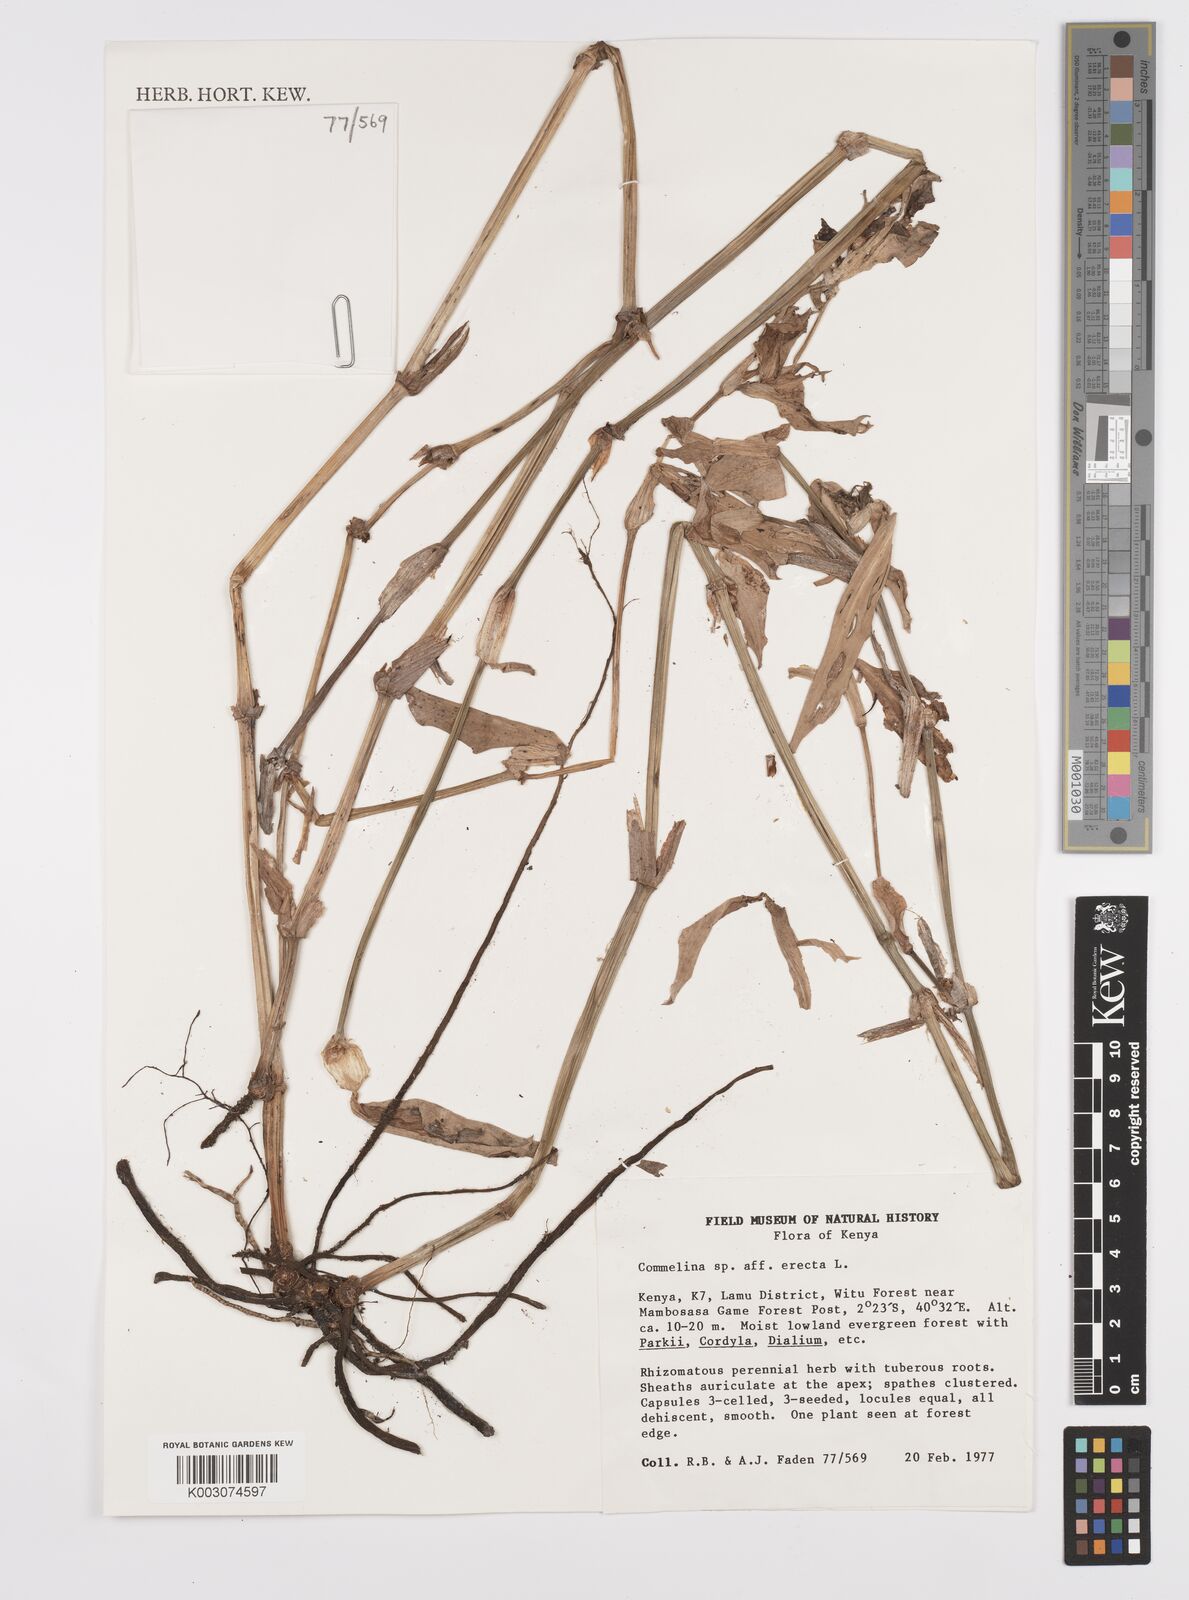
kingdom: Plantae
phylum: Tracheophyta
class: Liliopsida
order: Commelinales
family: Commelinaceae
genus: Commelina
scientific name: Commelina erecta
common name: Blousel blommetjie
